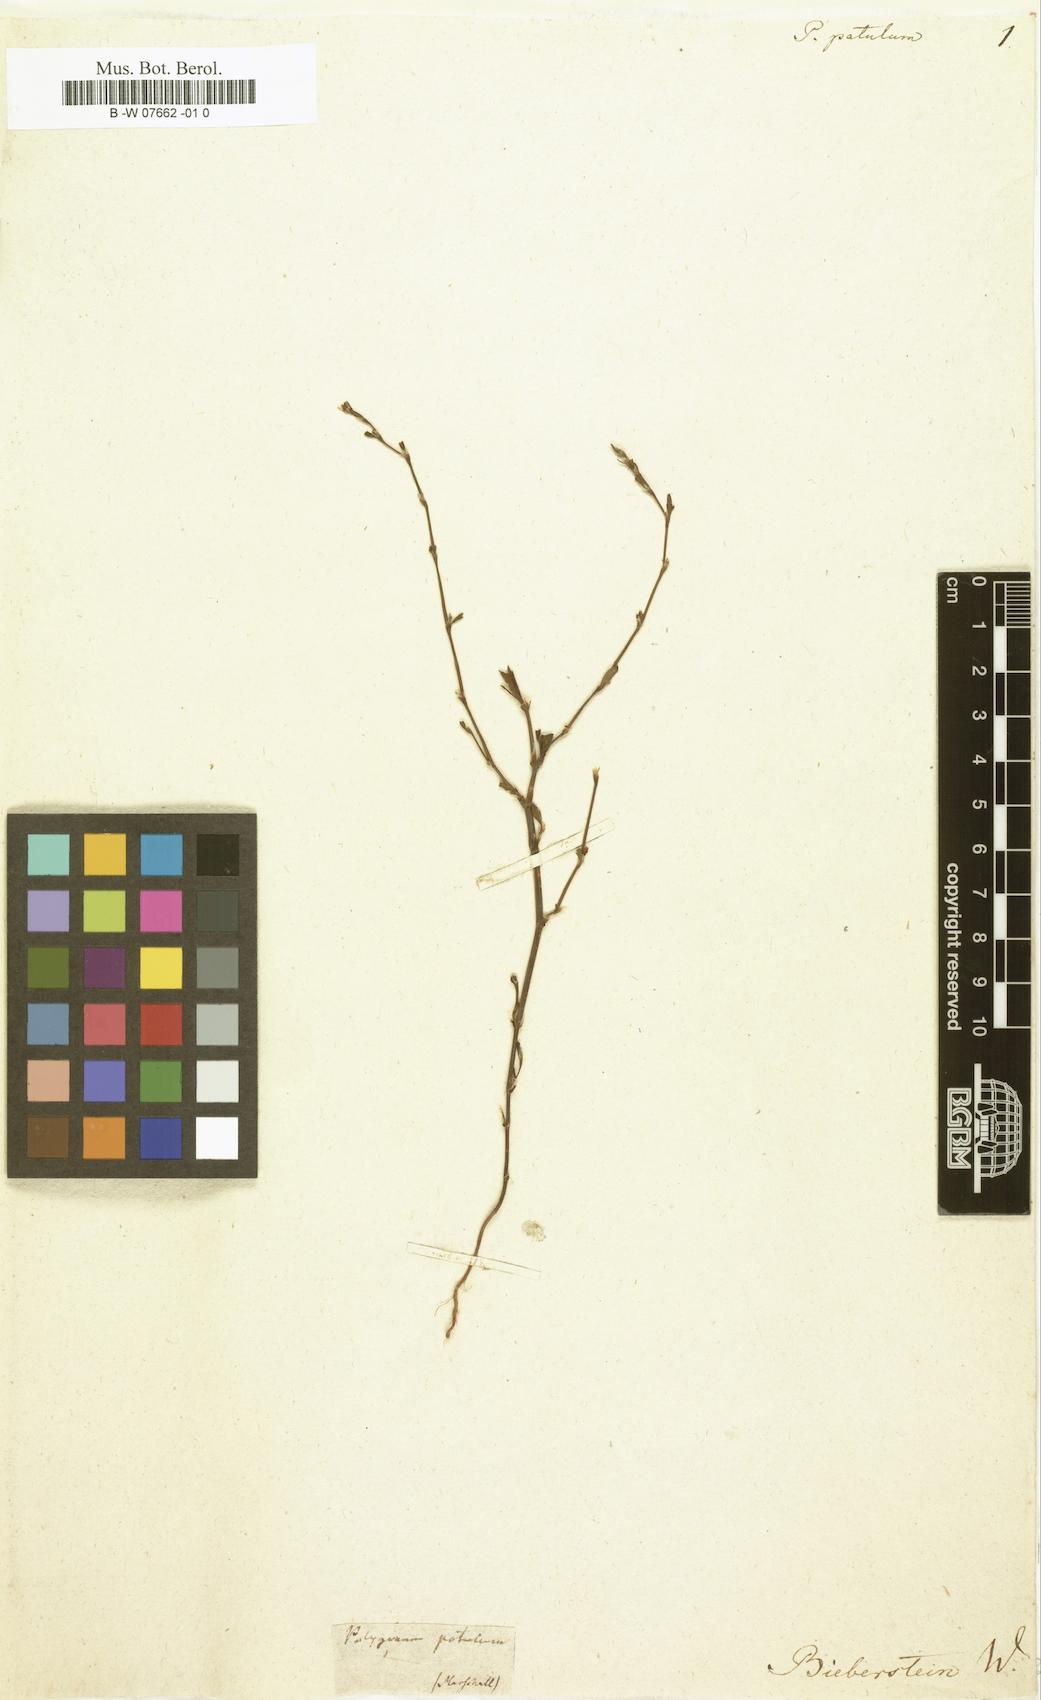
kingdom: Plantae
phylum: Tracheophyta
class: Magnoliopsida
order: Caryophyllales
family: Polygonaceae
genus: Polygonum
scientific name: Polygonum patulum
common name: Red-knotgrass
